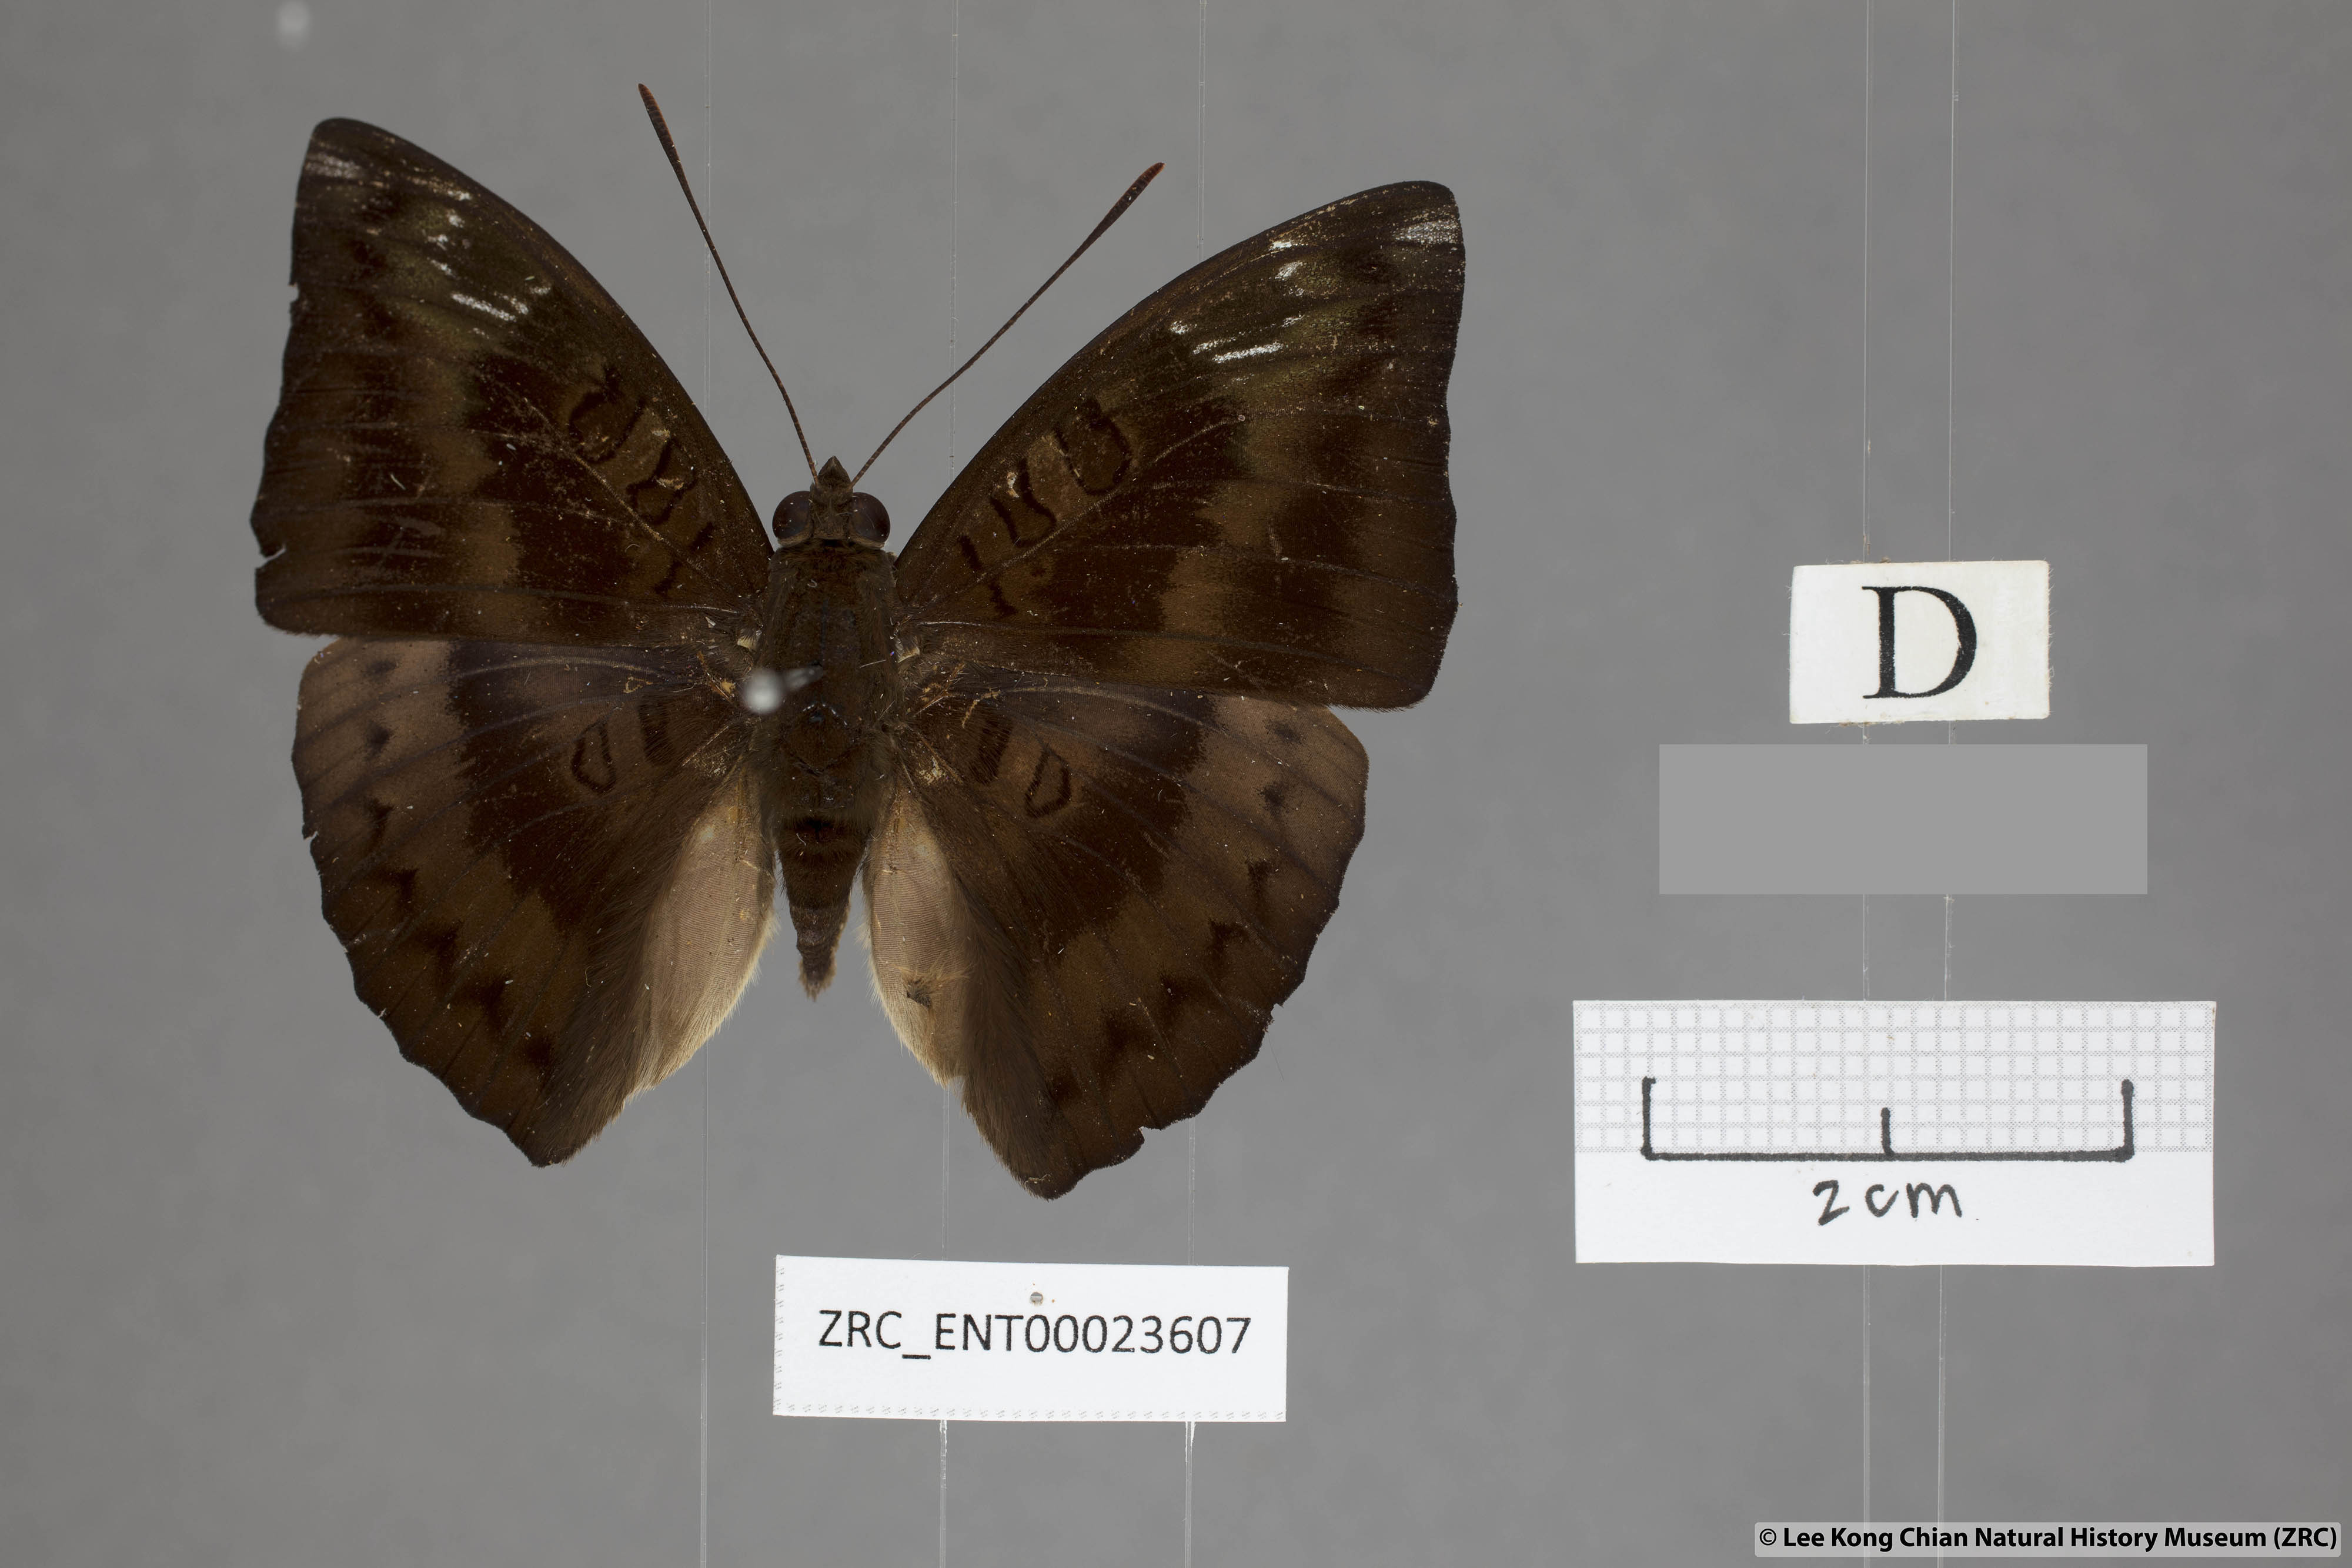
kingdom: Animalia
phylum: Arthropoda
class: Insecta
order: Lepidoptera
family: Nymphalidae
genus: Euthalia
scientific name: Euthalia alpheda
